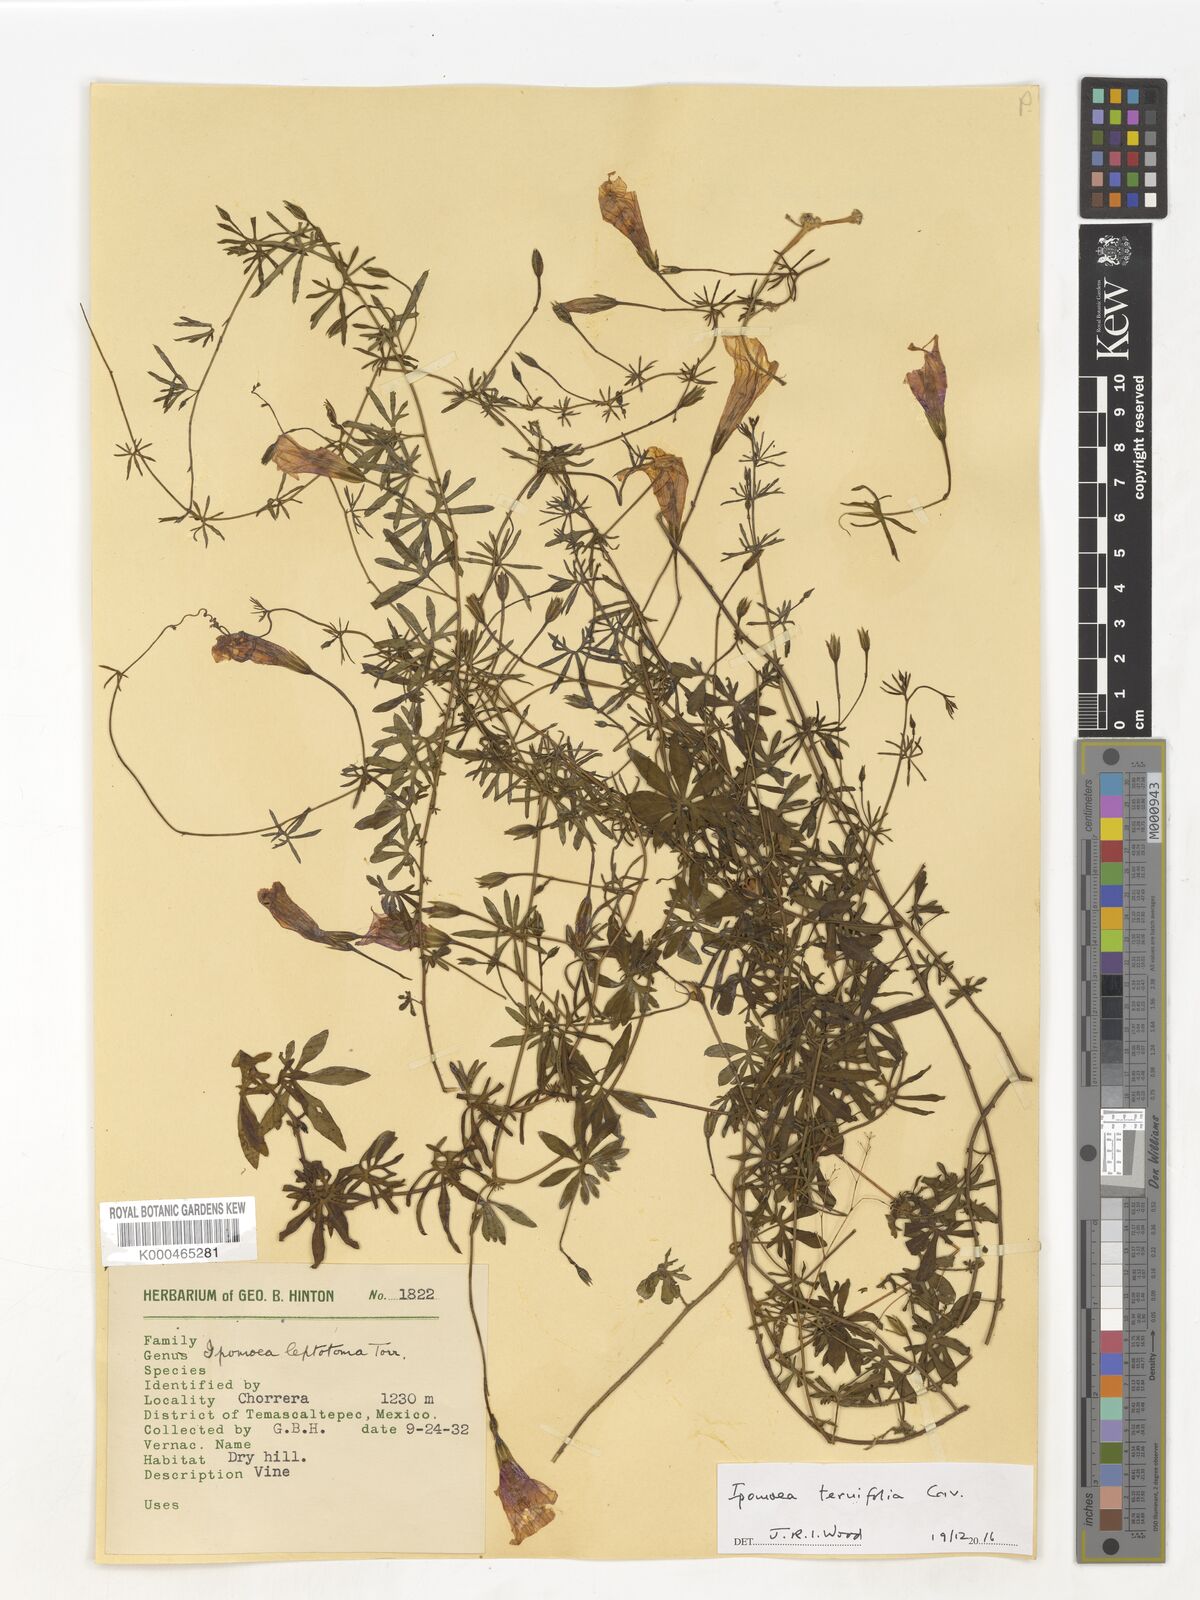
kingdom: Plantae
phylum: Tracheophyta
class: Magnoliopsida
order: Solanales
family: Convolvulaceae
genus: Ipomoea
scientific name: Ipomoea ternifolia
